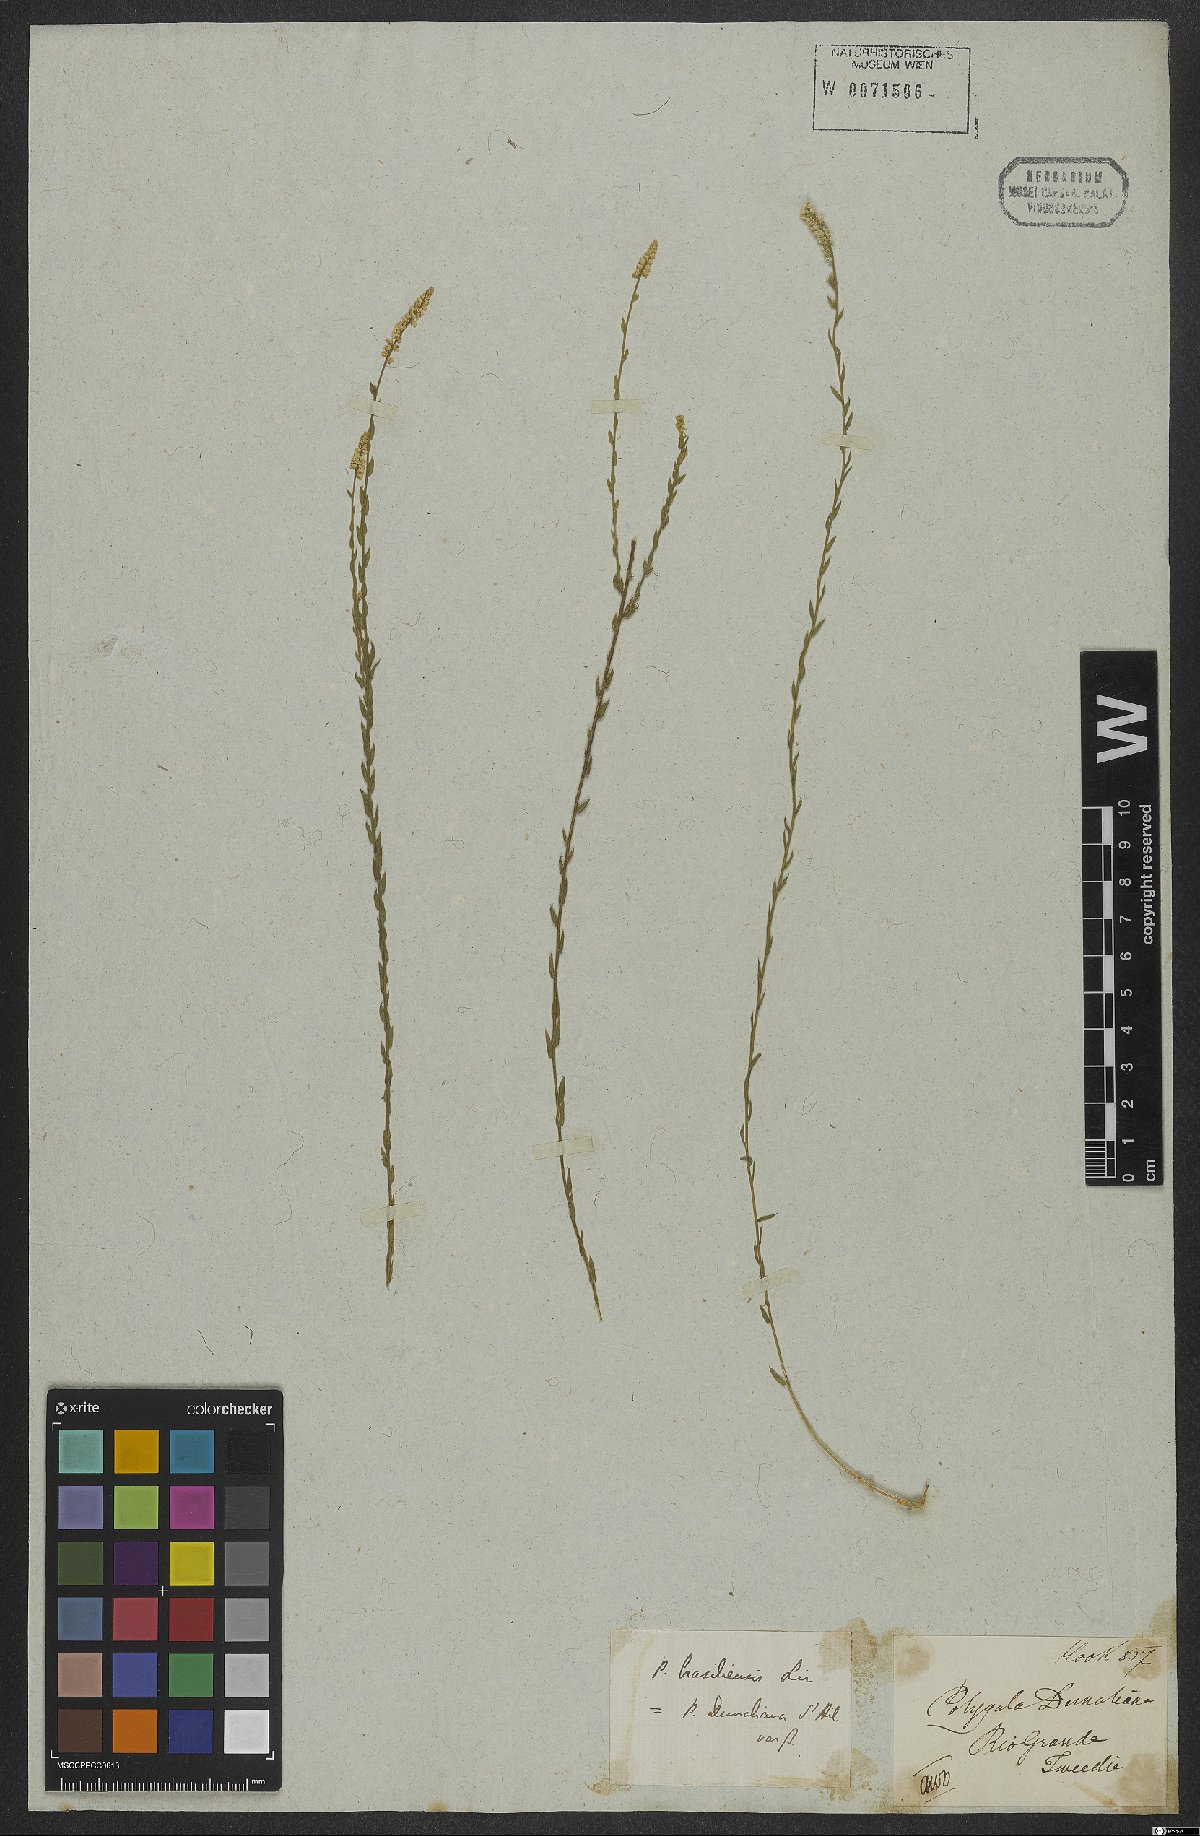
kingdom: Plantae
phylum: Tracheophyta
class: Magnoliopsida
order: Fabales
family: Polygalaceae
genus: Polygala
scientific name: Polygala brasiliensis
